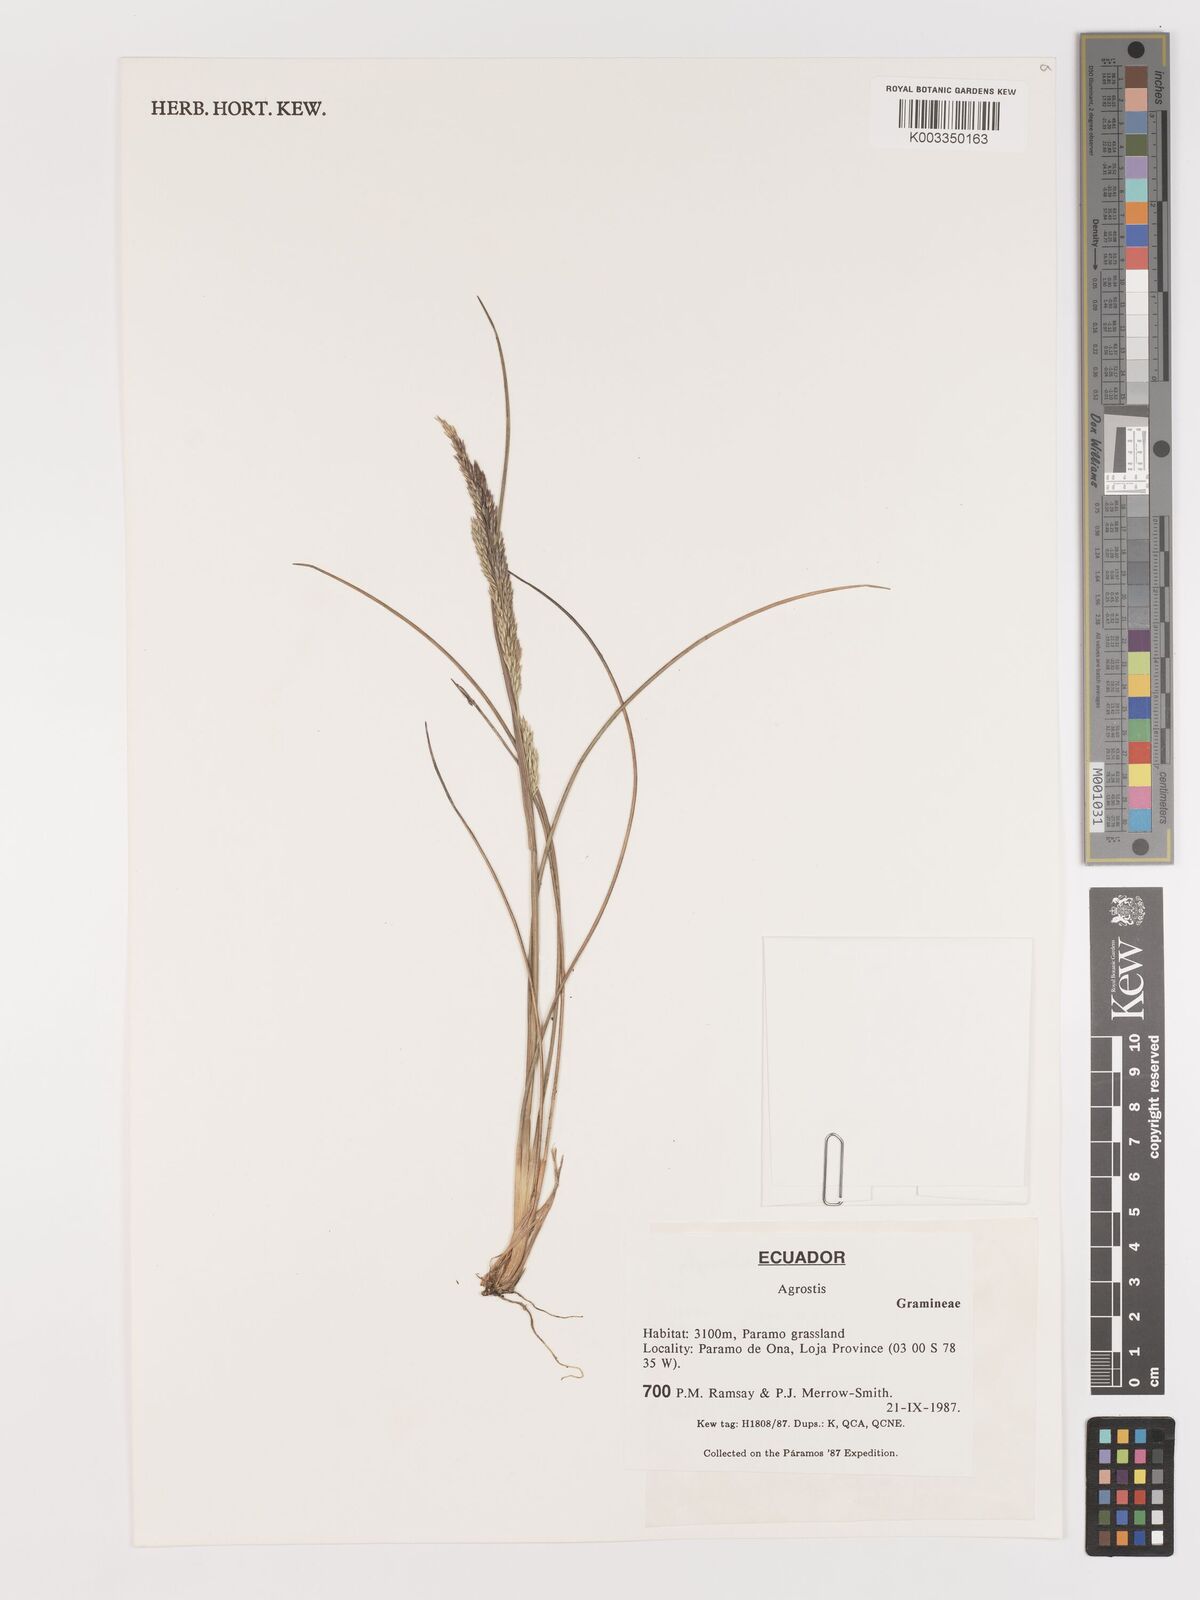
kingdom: Plantae
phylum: Tracheophyta
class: Liliopsida
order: Poales
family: Poaceae
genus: Agrostis
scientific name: Agrostis
